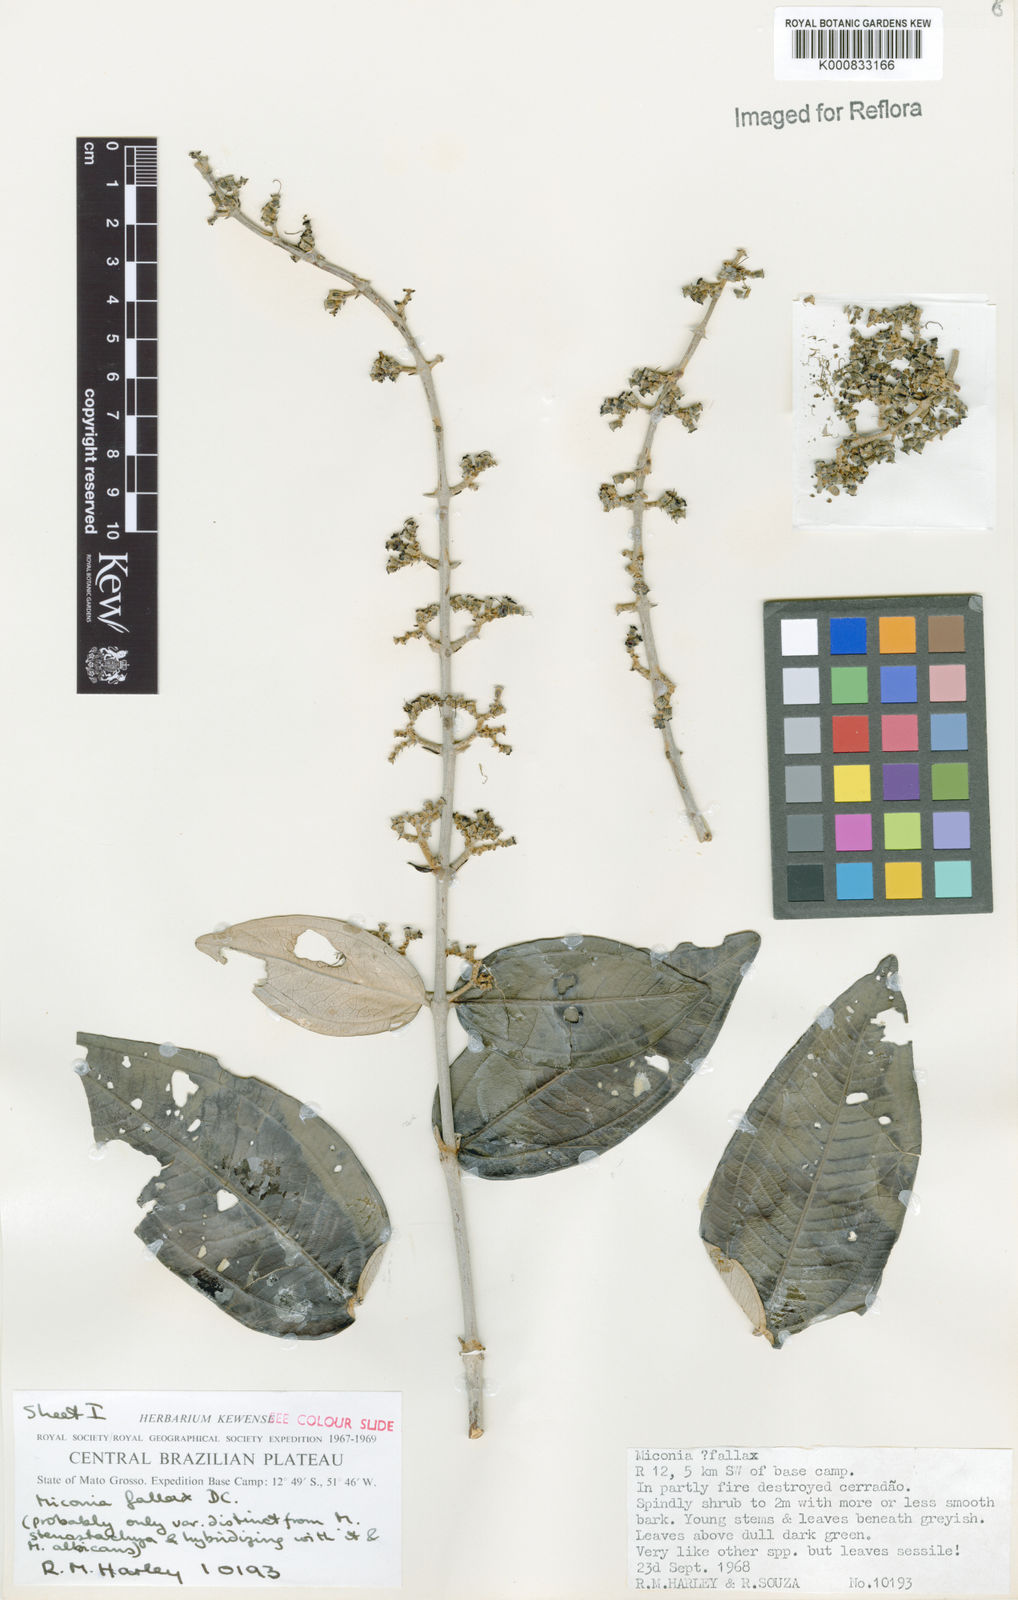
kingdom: Plantae
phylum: Tracheophyta
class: Magnoliopsida
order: Myrtales
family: Melastomataceae
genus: Miconia
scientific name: Miconia fallax
